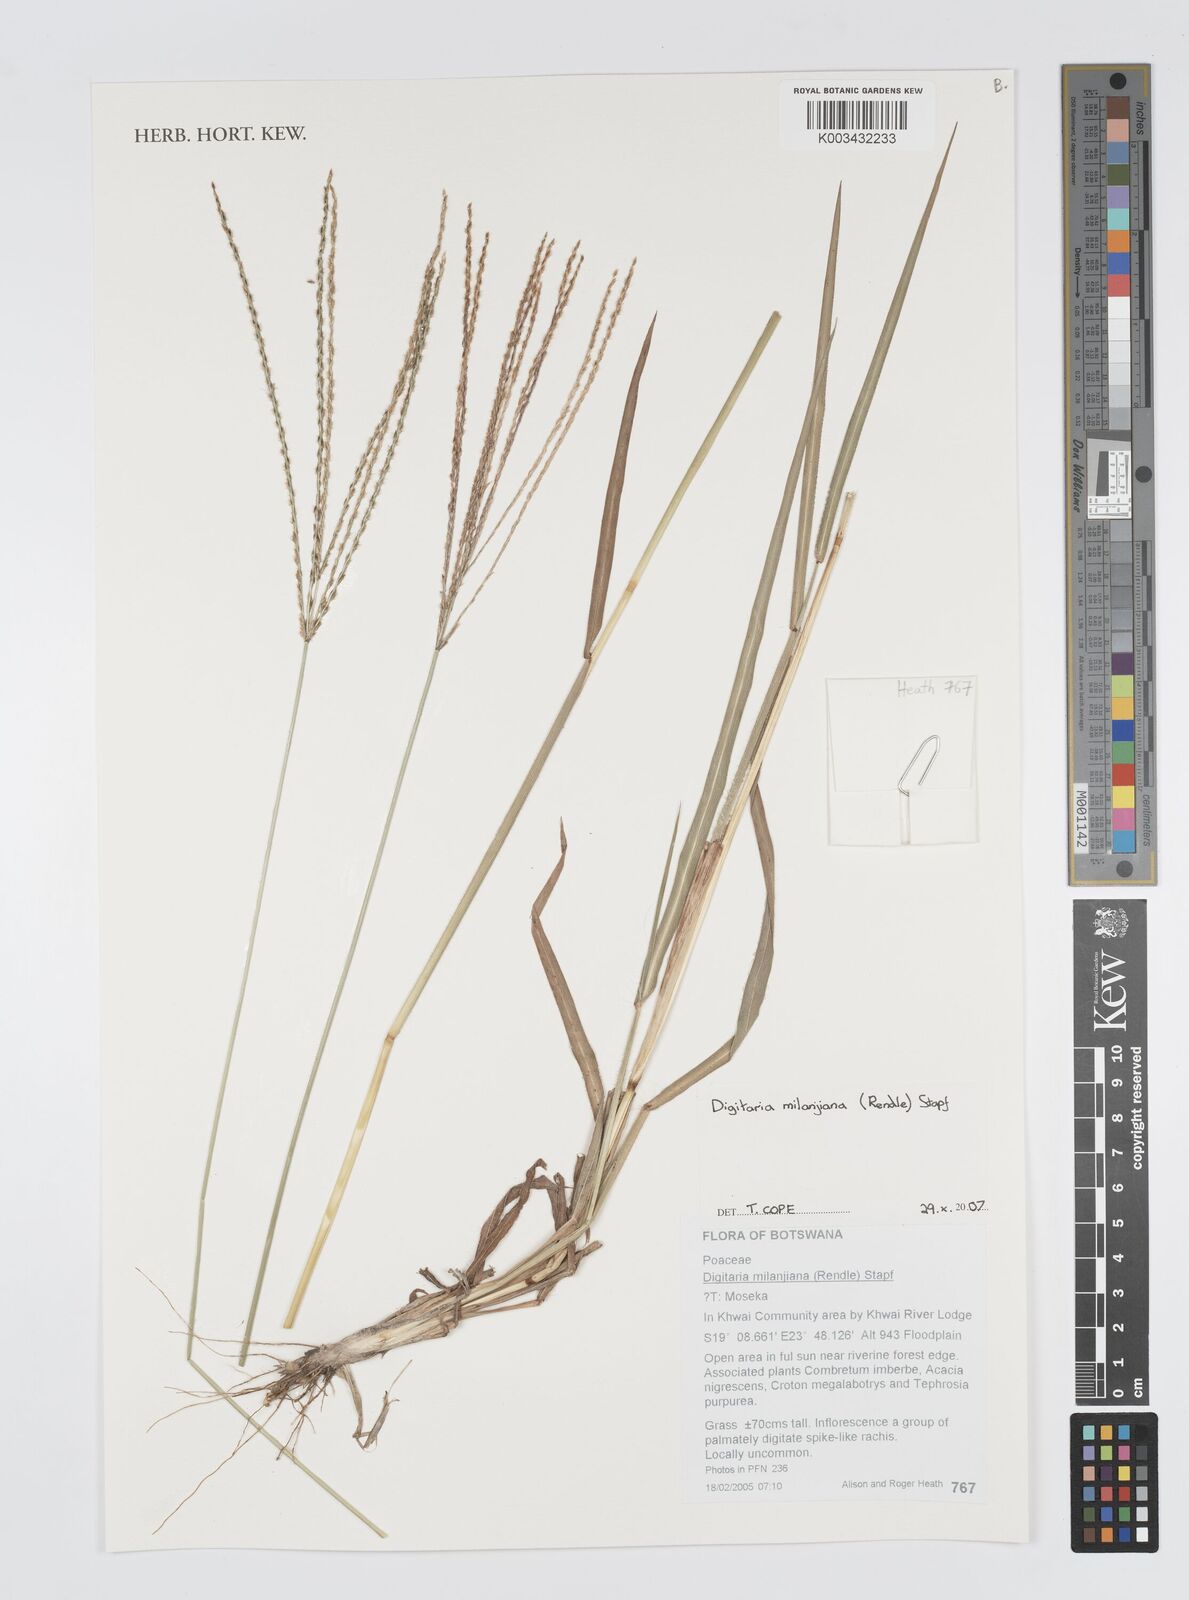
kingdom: Plantae
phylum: Tracheophyta
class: Liliopsida
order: Poales
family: Poaceae
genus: Digitaria
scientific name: Digitaria milanjiana
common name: Madagascar crabgrass
